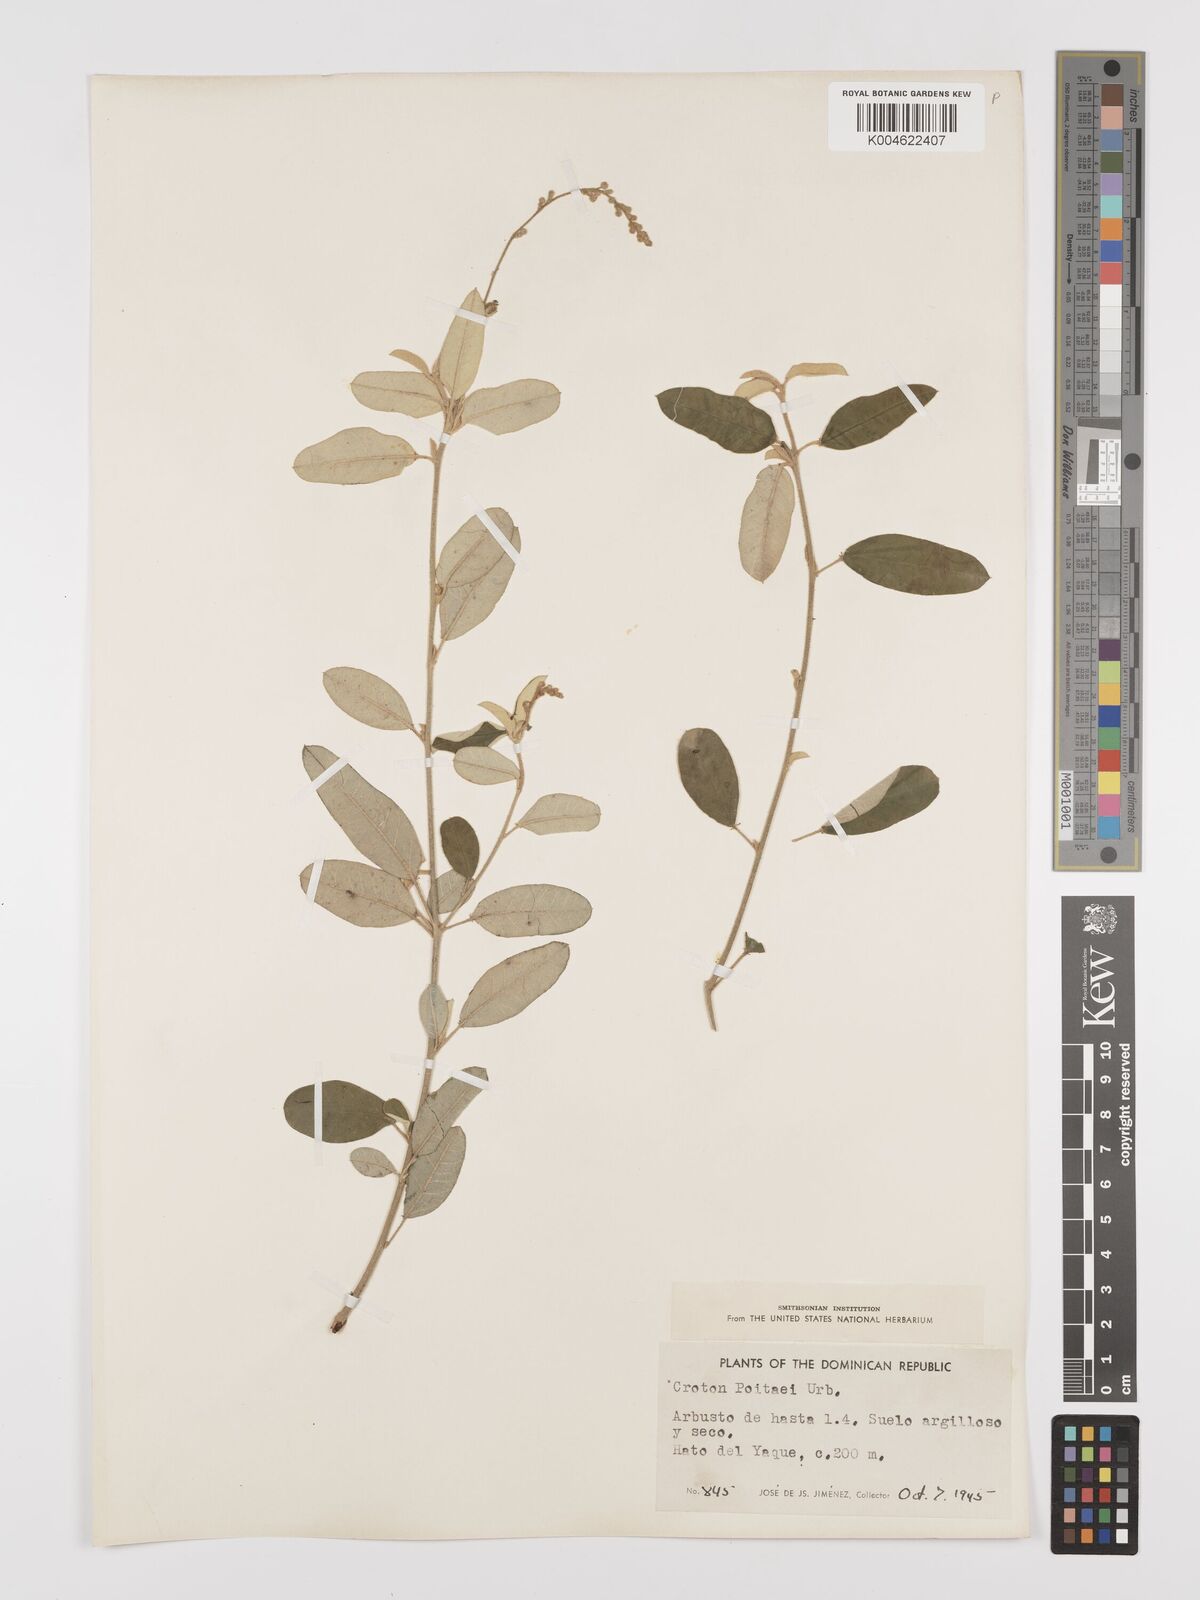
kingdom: Plantae
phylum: Tracheophyta
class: Magnoliopsida
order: Malpighiales
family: Euphorbiaceae
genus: Croton
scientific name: Croton poitaei
